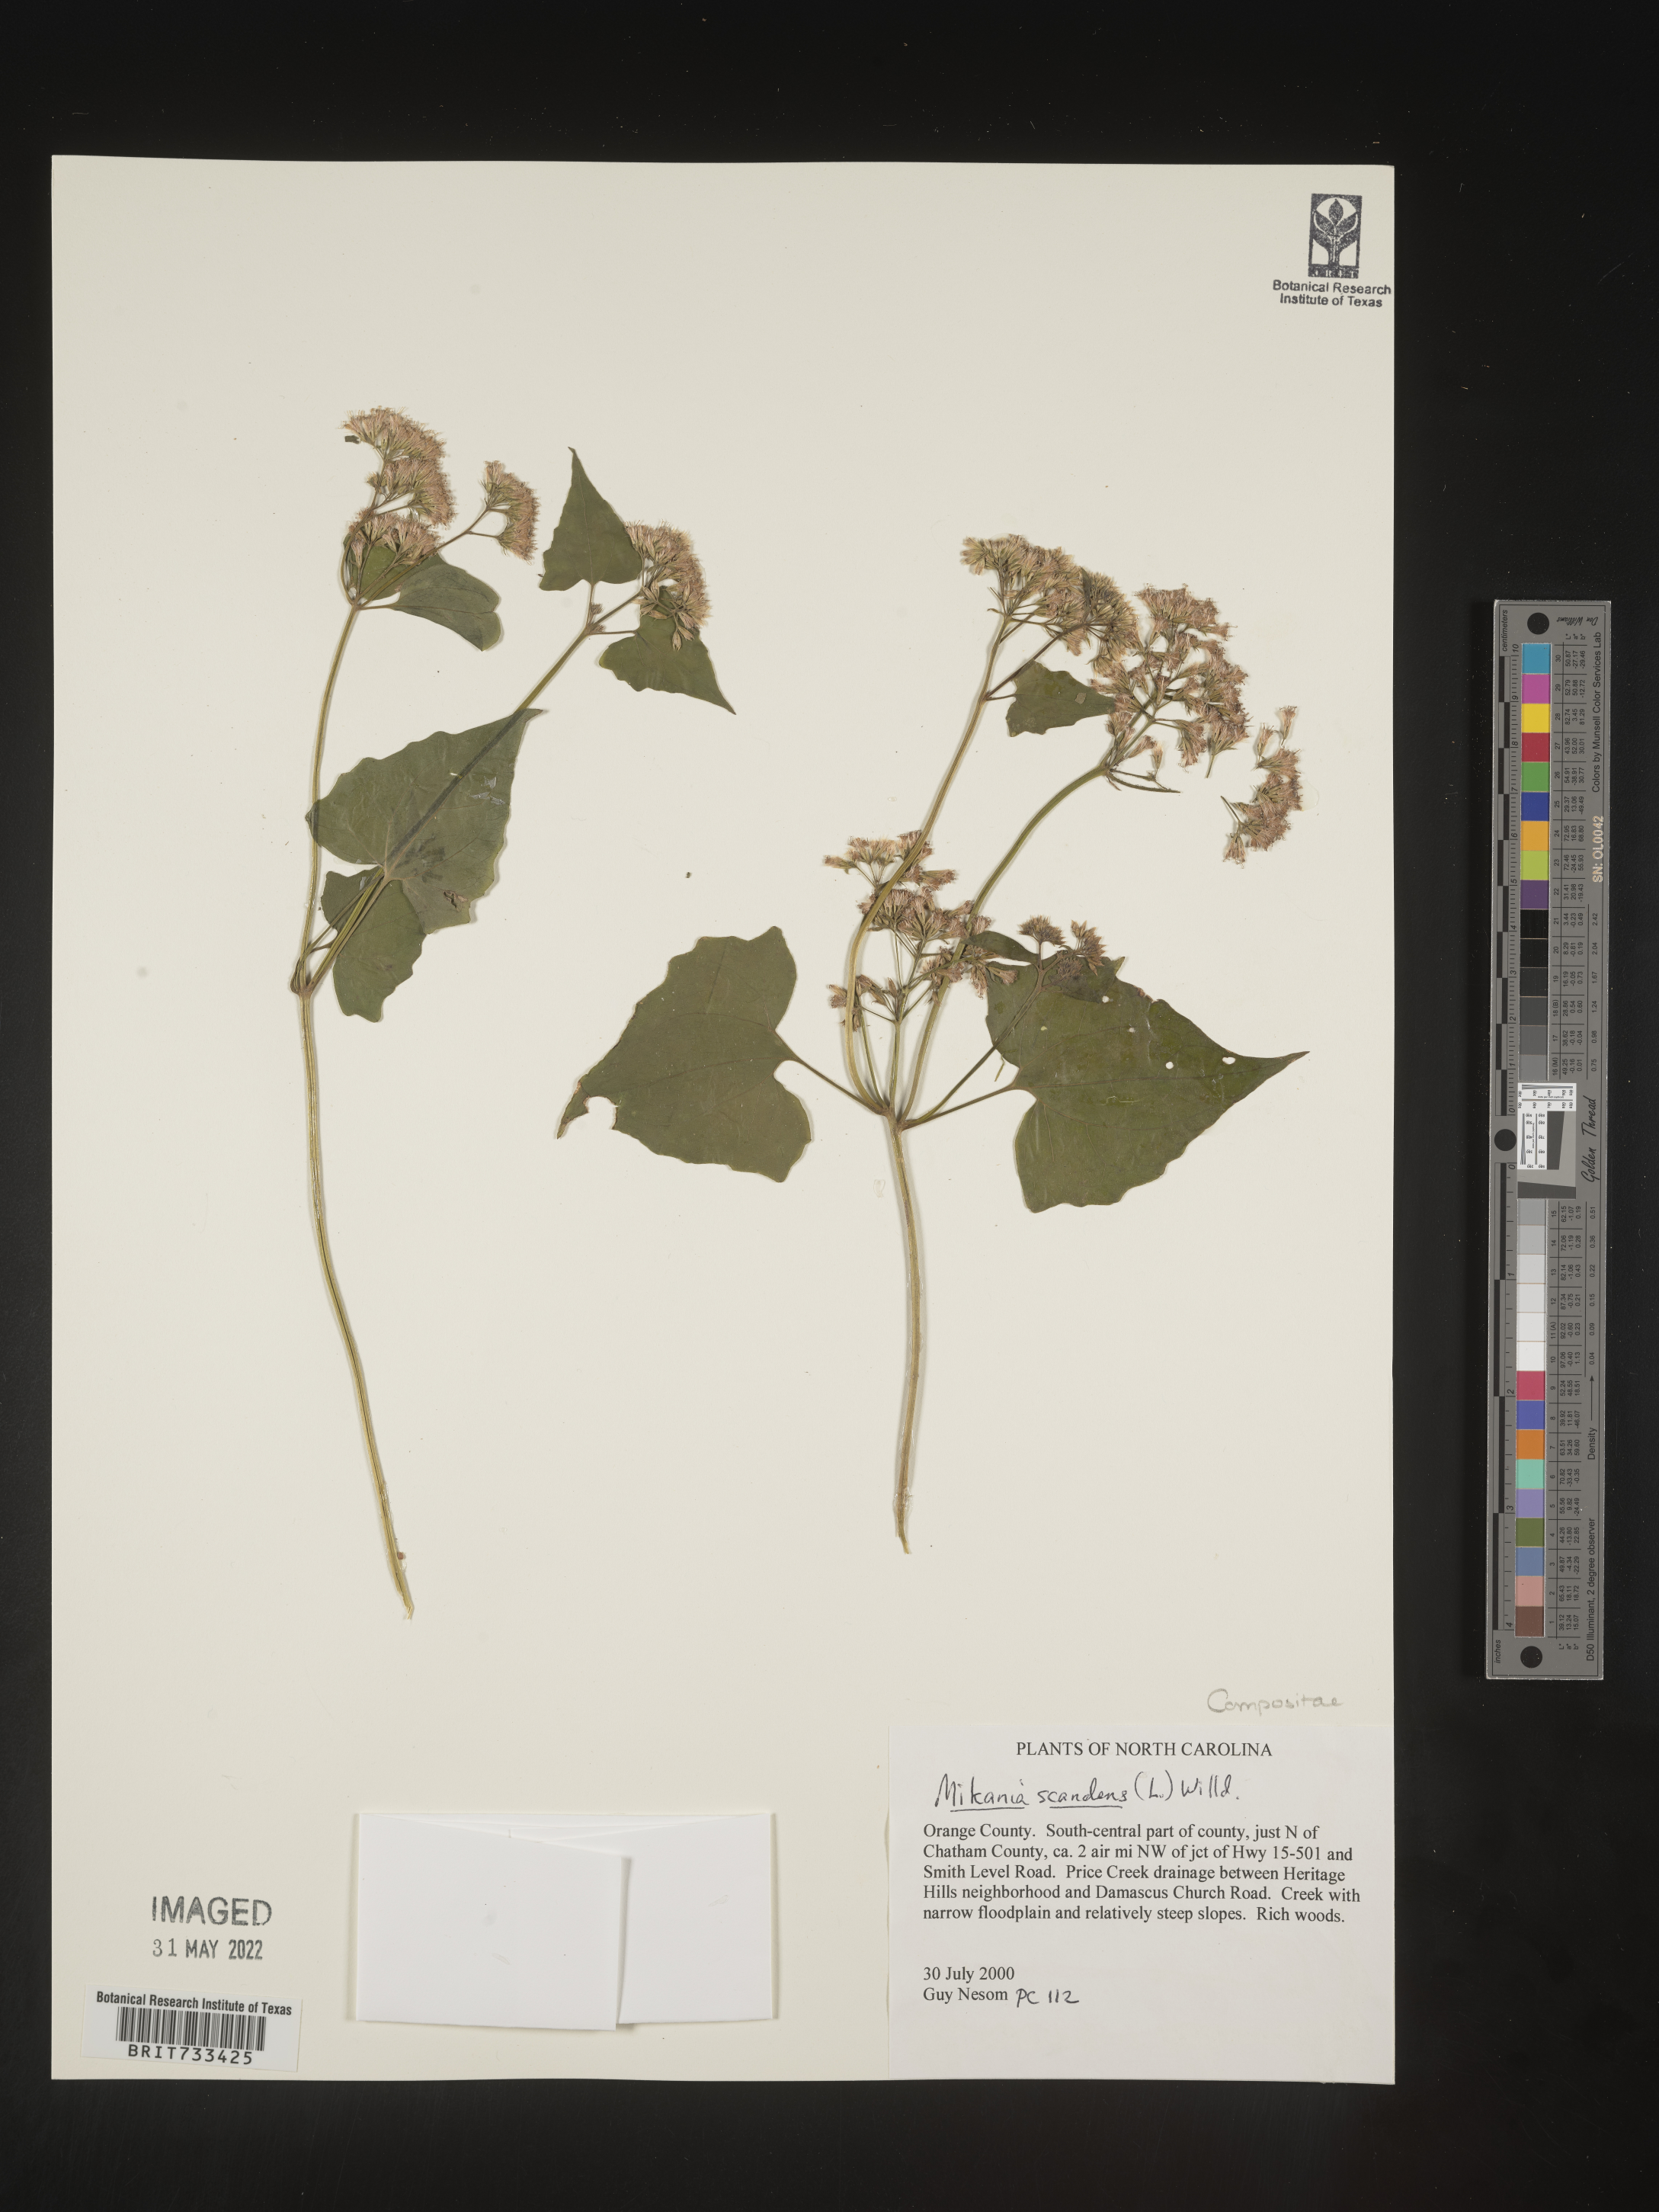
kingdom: Plantae
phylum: Tracheophyta
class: Magnoliopsida
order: Asterales
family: Asteraceae
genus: Mikania
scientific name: Mikania scandens
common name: Climbing hempvine
